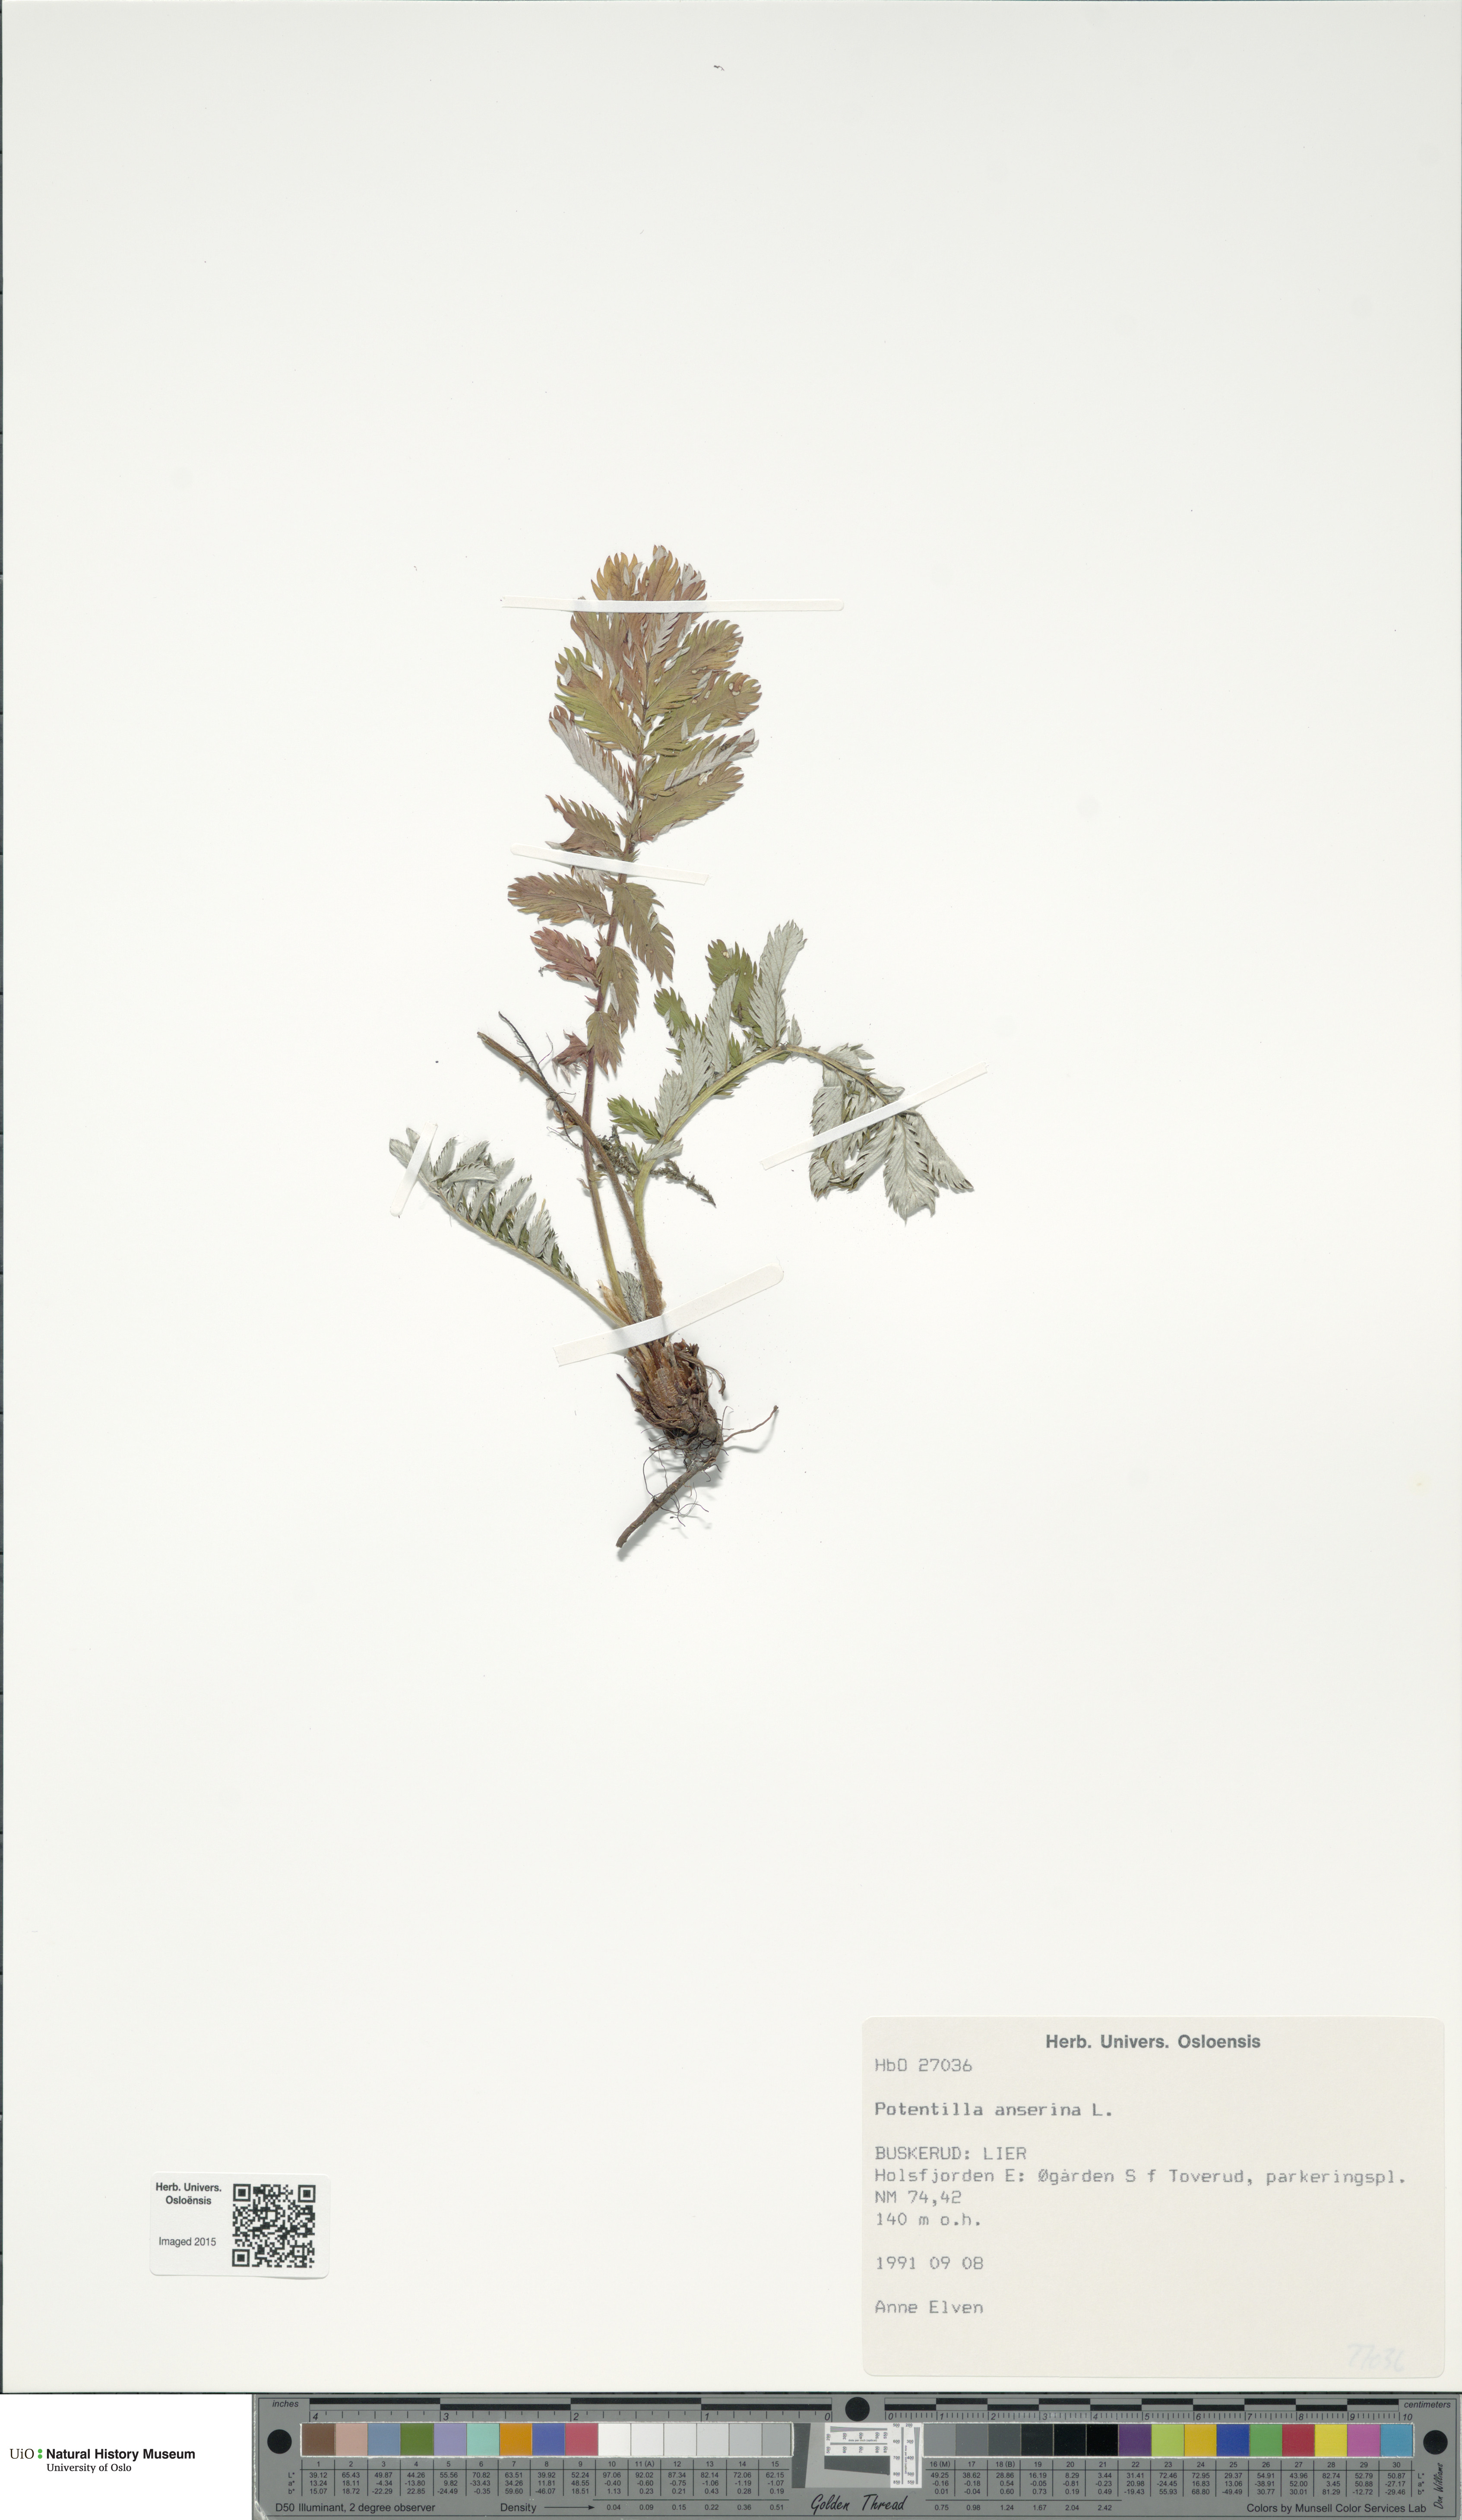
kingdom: Plantae
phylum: Tracheophyta
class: Magnoliopsida
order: Rosales
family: Rosaceae
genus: Argentina
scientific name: Argentina anserina
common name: Common silverweed
